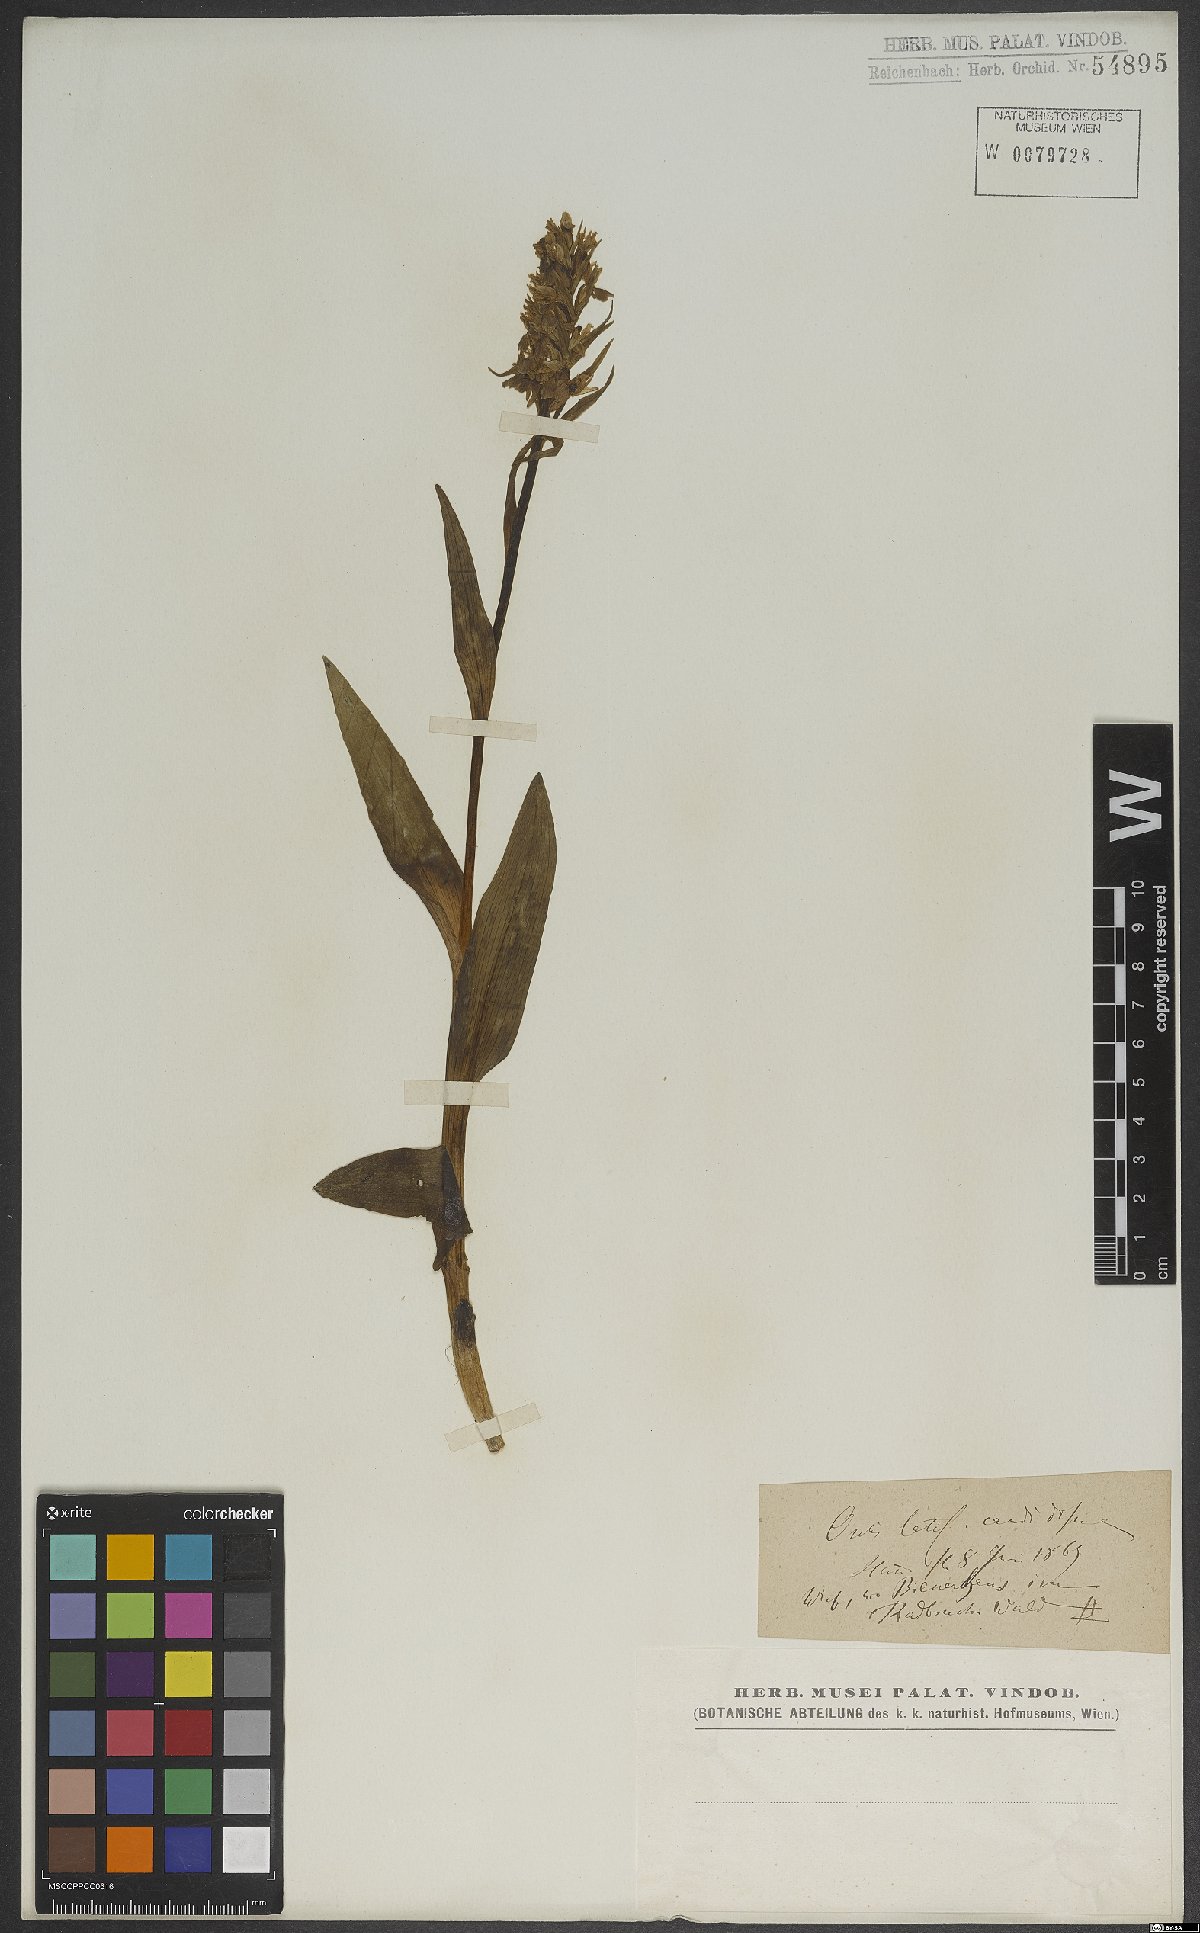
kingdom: Plantae
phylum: Tracheophyta
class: Liliopsida
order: Asparagales
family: Orchidaceae
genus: Dactylorhiza
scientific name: Dactylorhiza majalis
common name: Marsh orchid
